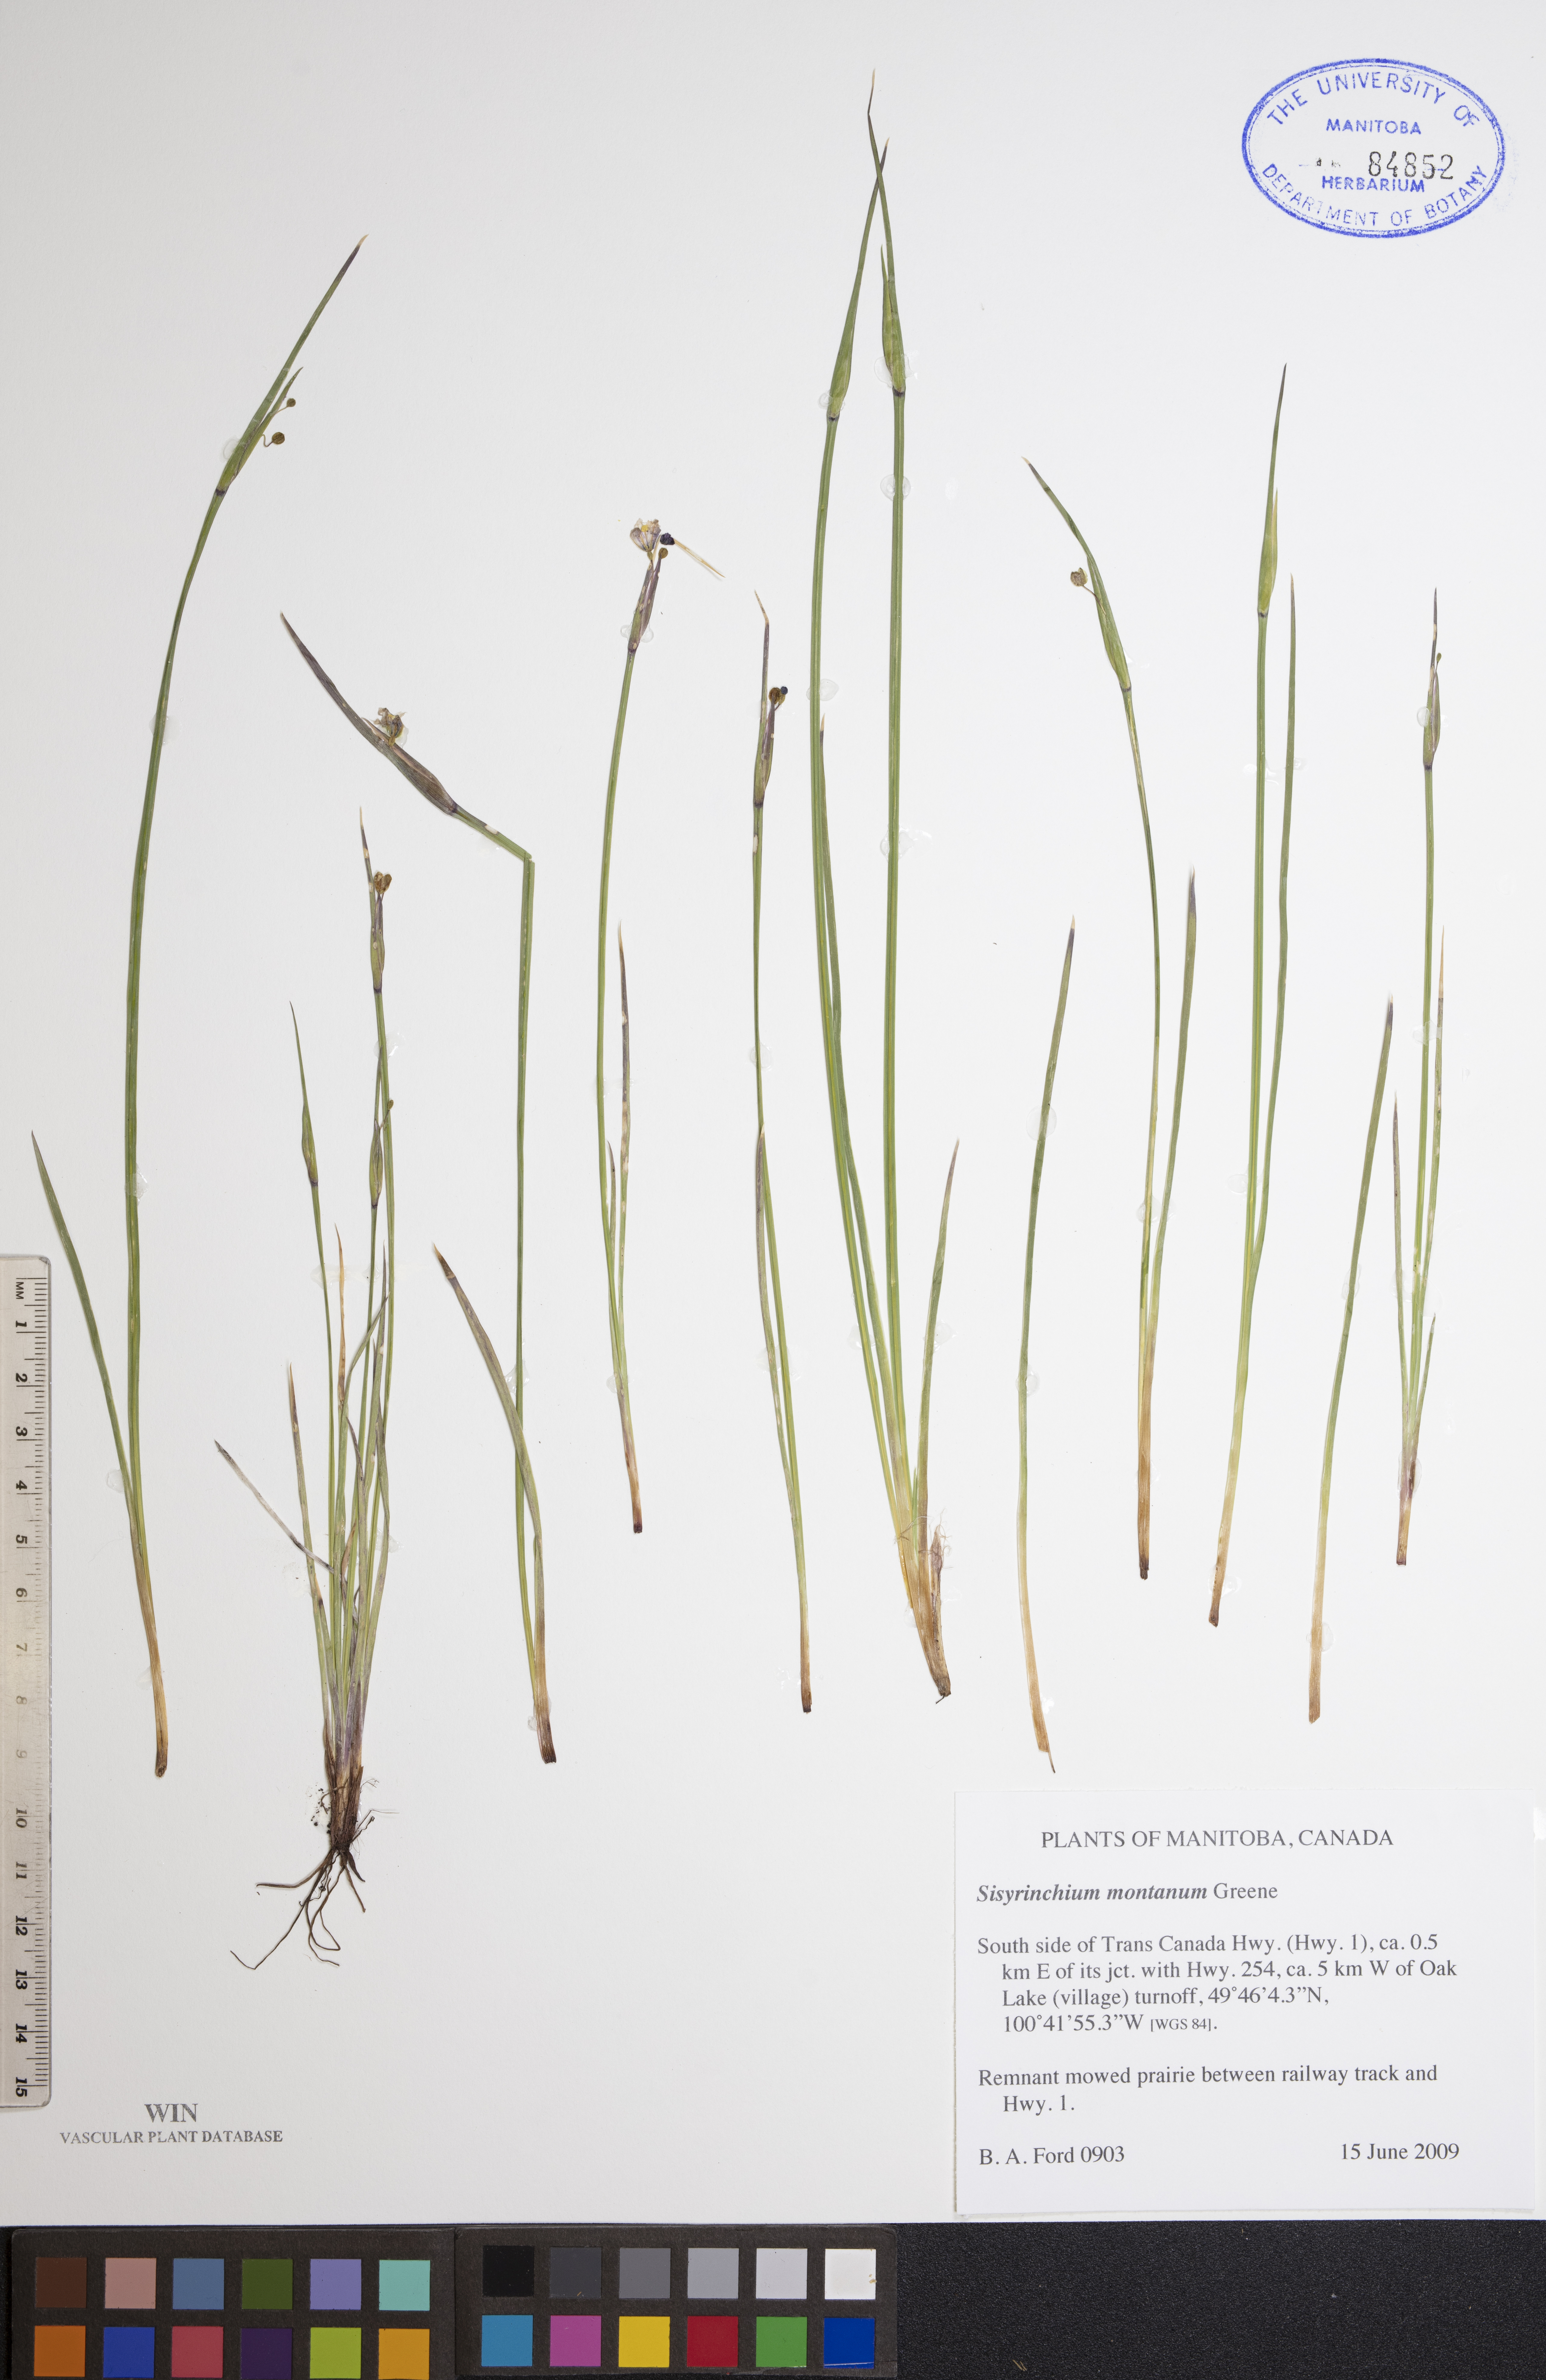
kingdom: Plantae
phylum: Tracheophyta
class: Liliopsida
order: Asparagales
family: Iridaceae
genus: Sisyrinchium
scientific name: Sisyrinchium montanum
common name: American blue-eyed-grass
